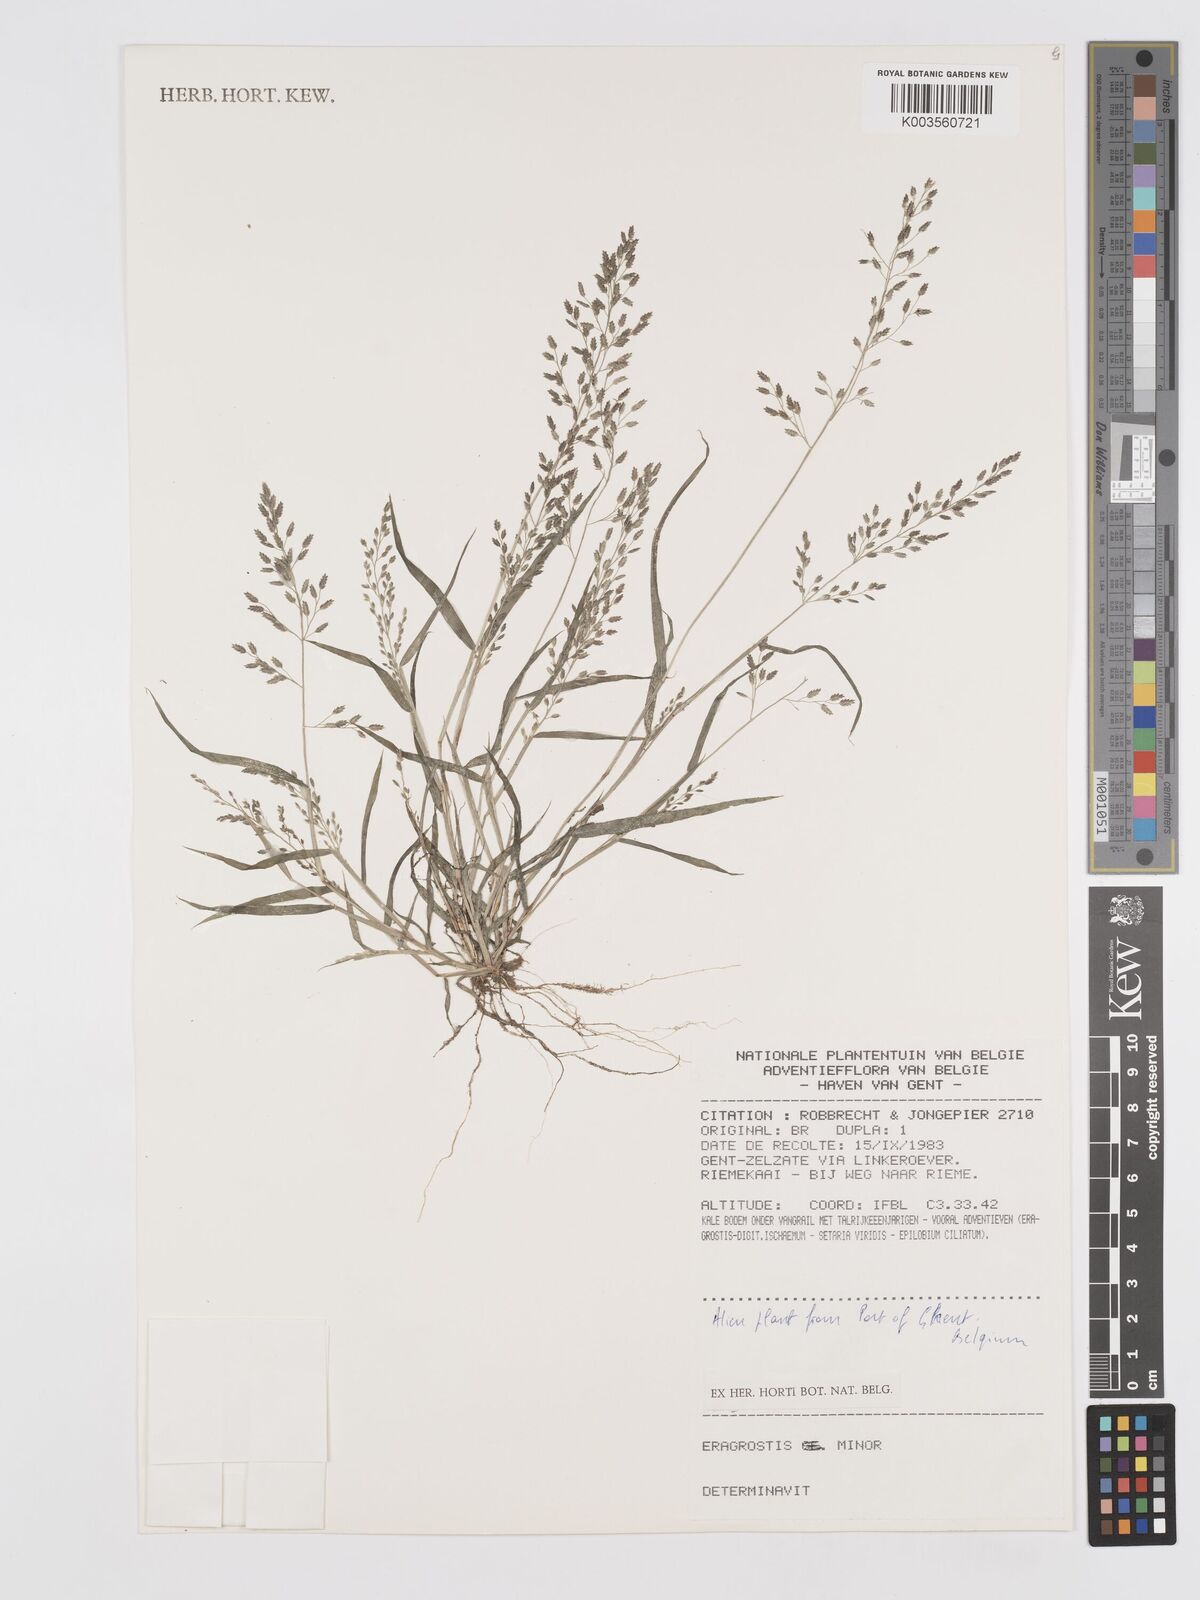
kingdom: Plantae
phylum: Tracheophyta
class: Liliopsida
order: Poales
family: Poaceae
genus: Eragrostis
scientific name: Eragrostis minor
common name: Small love-grass
